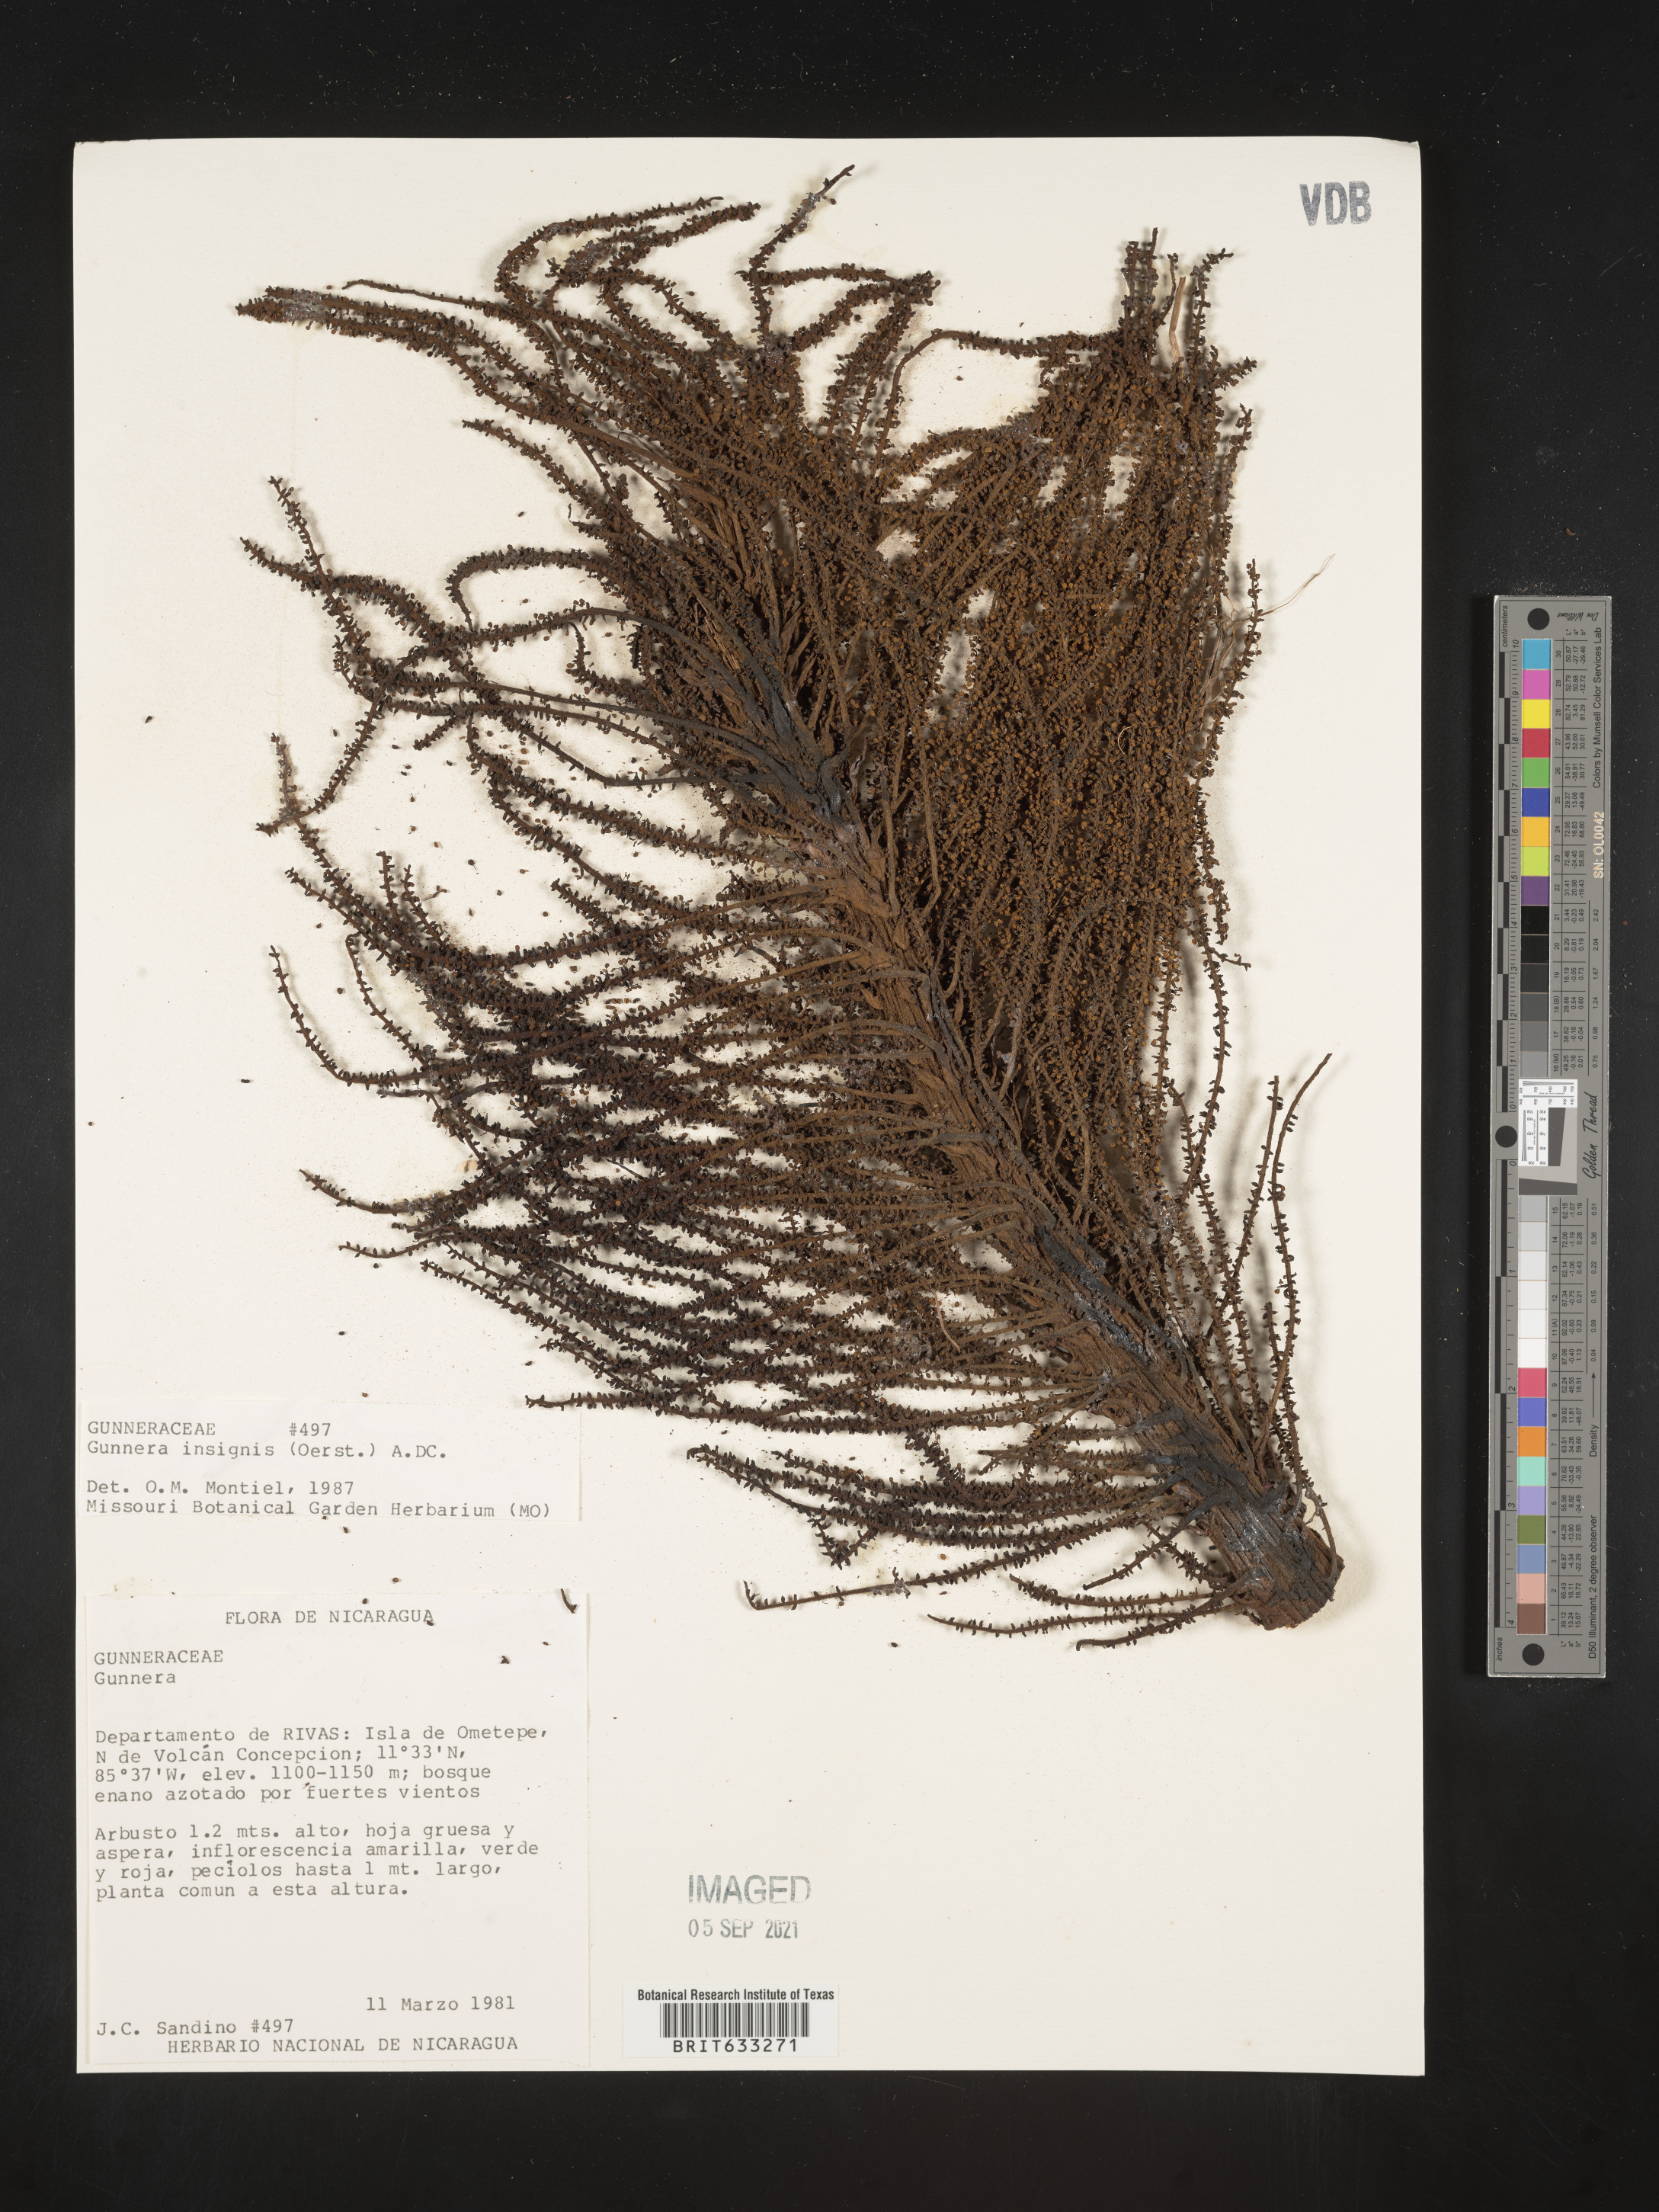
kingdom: Plantae
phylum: Tracheophyta
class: Magnoliopsida
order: Gunnerales
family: Gunneraceae
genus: Gunnera
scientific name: Gunnera
